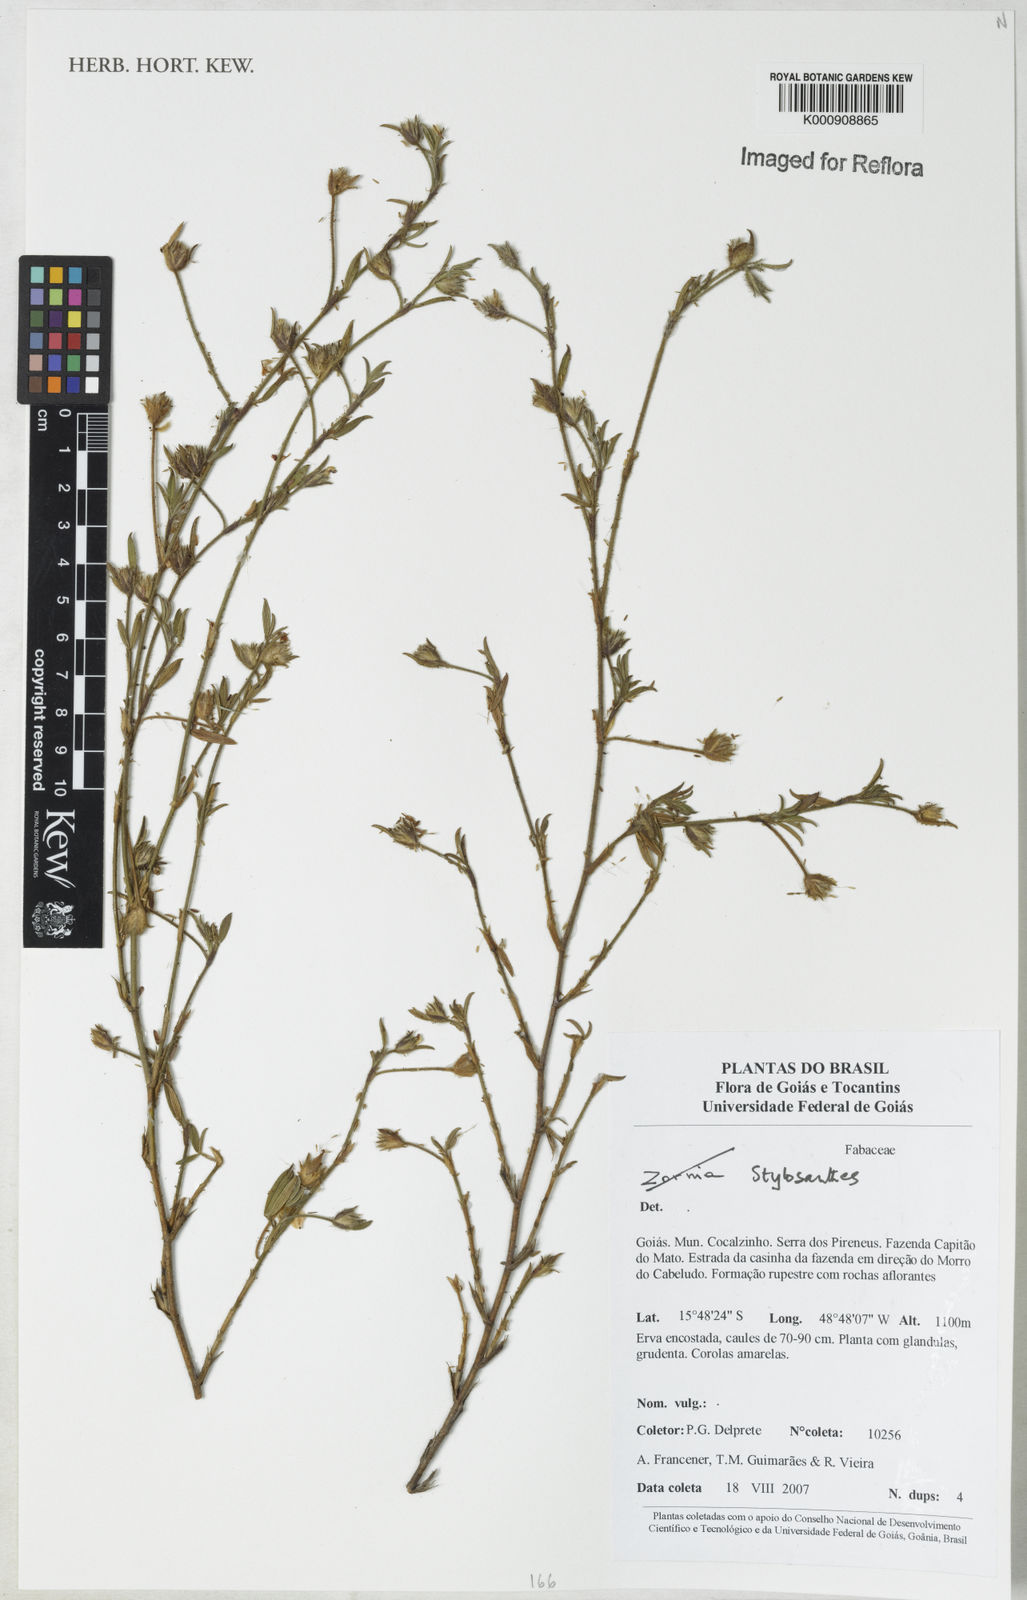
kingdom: Plantae
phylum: Tracheophyta
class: Magnoliopsida
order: Fabales
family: Fabaceae
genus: Stylosanthes
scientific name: Stylosanthes
